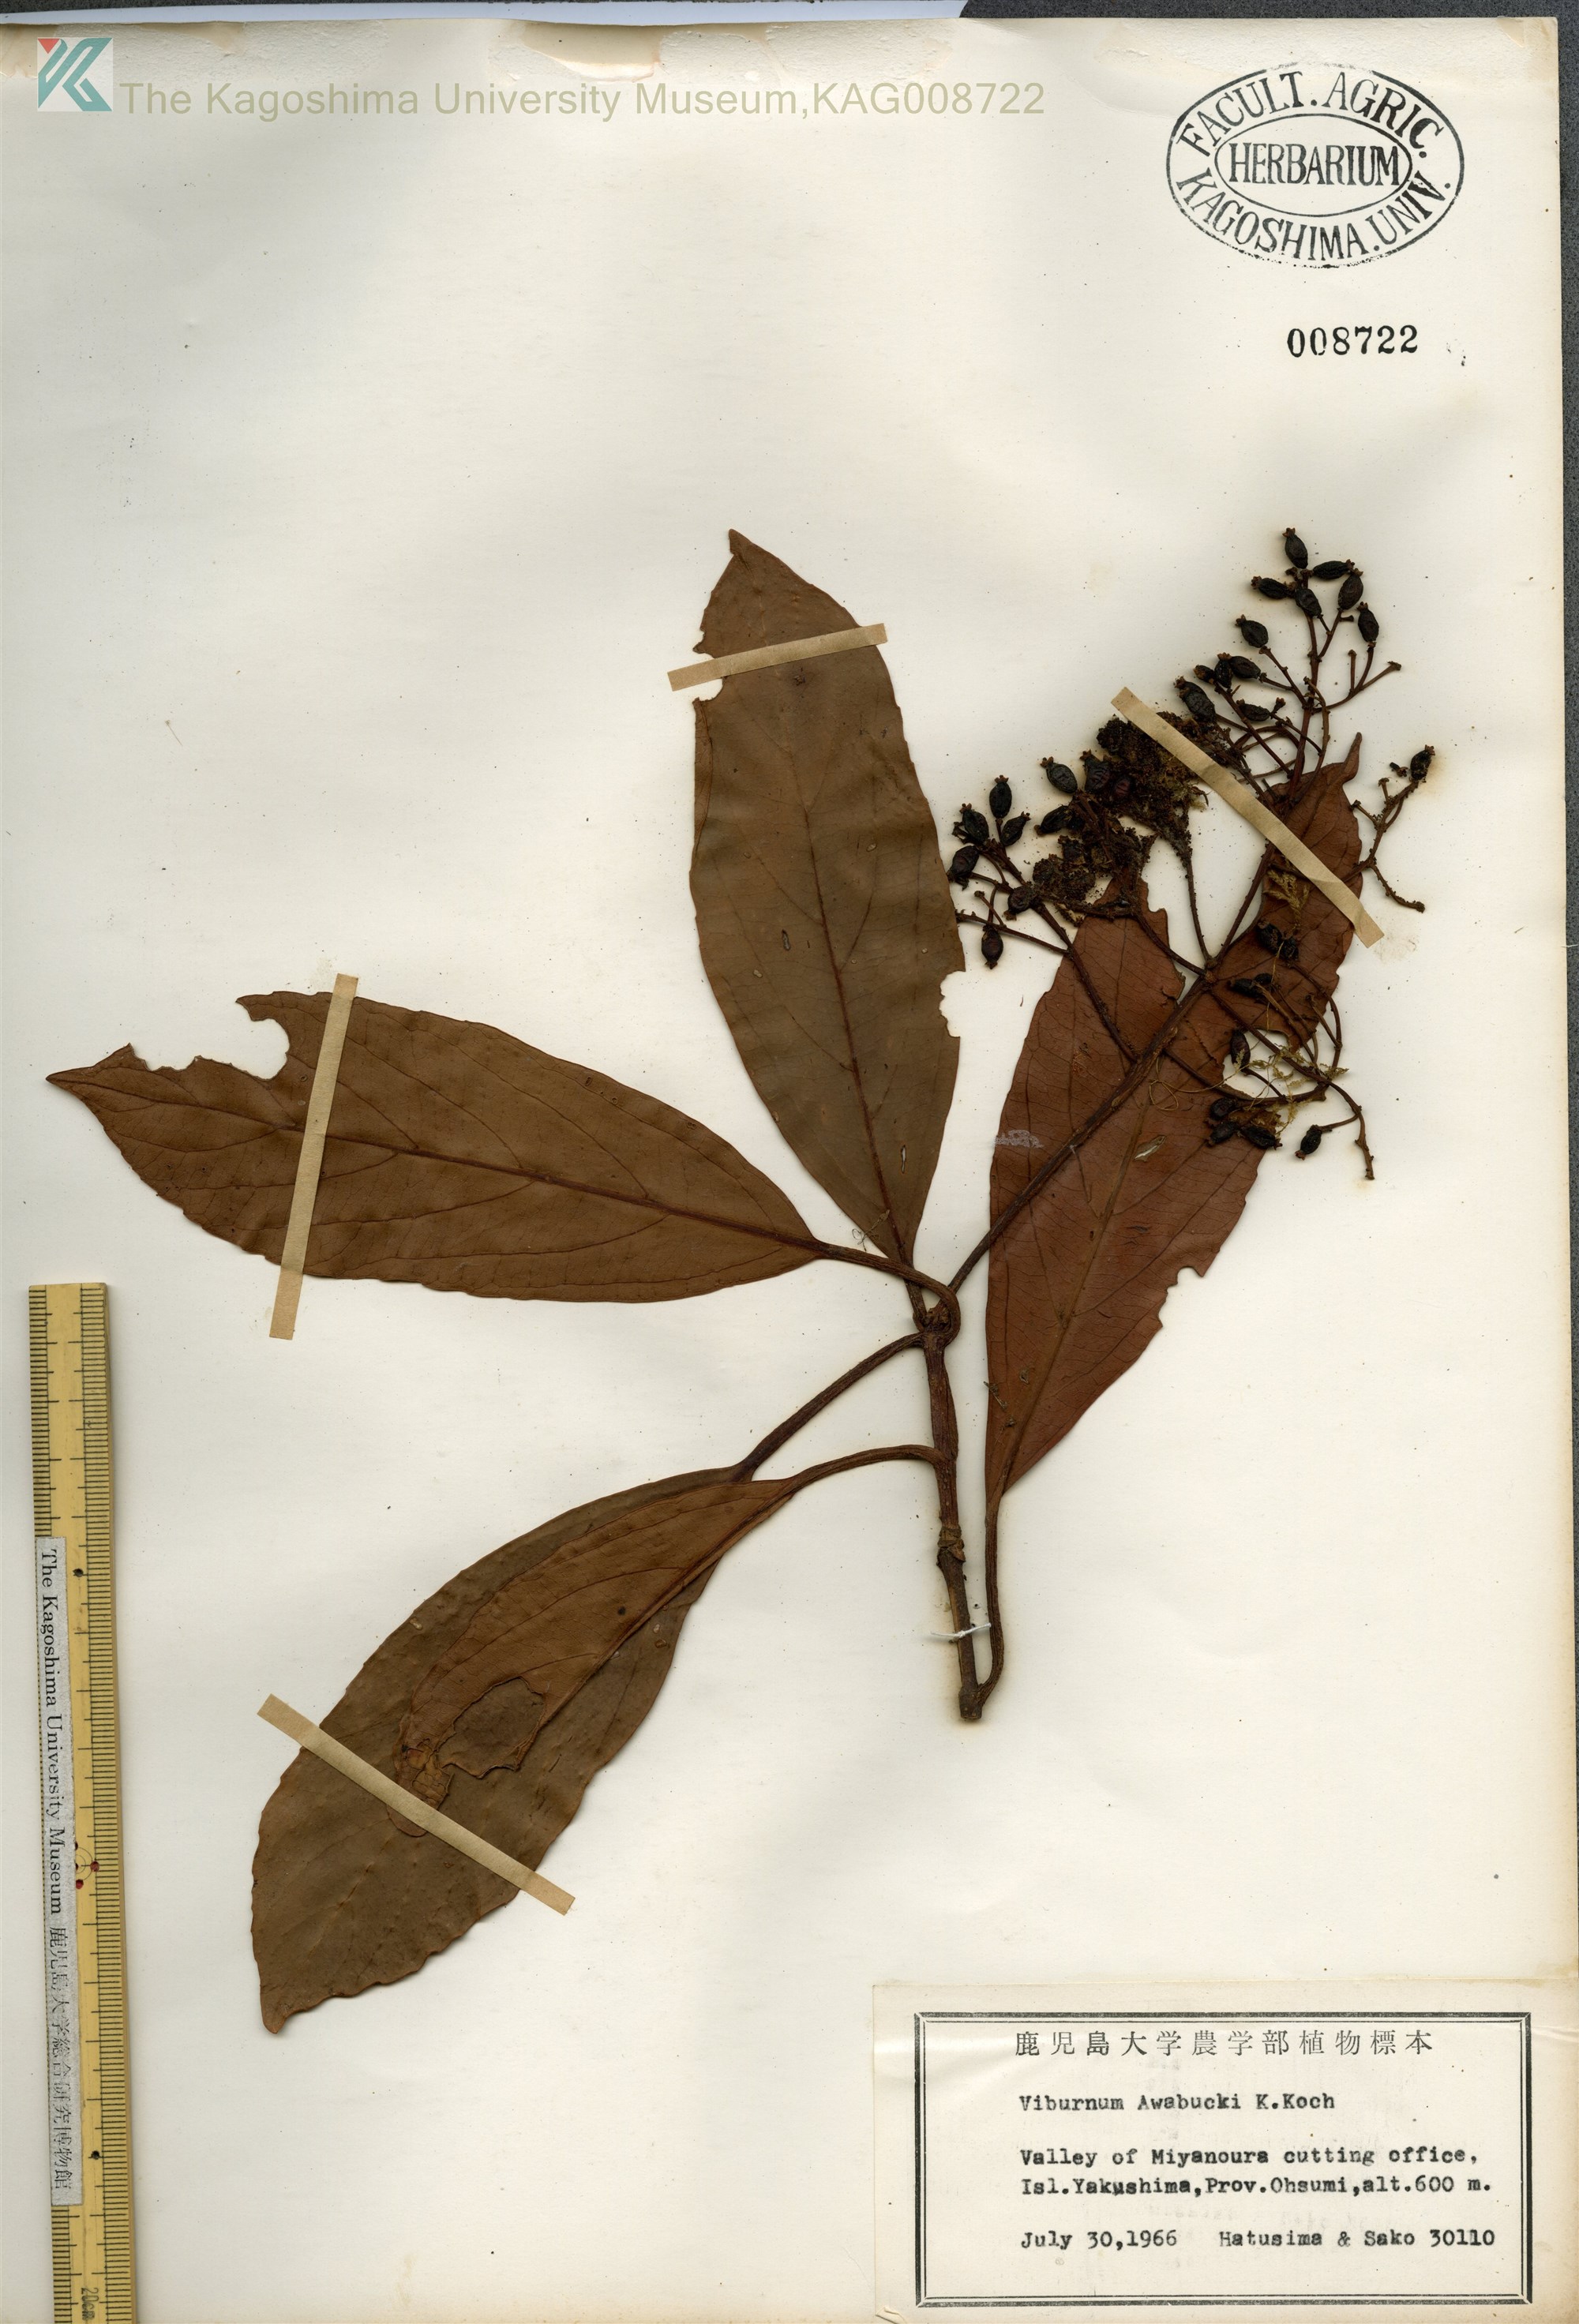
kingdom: Plantae
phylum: Tracheophyta
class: Magnoliopsida
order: Dipsacales
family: Viburnaceae
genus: Viburnum
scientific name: Viburnum odoratissimum
